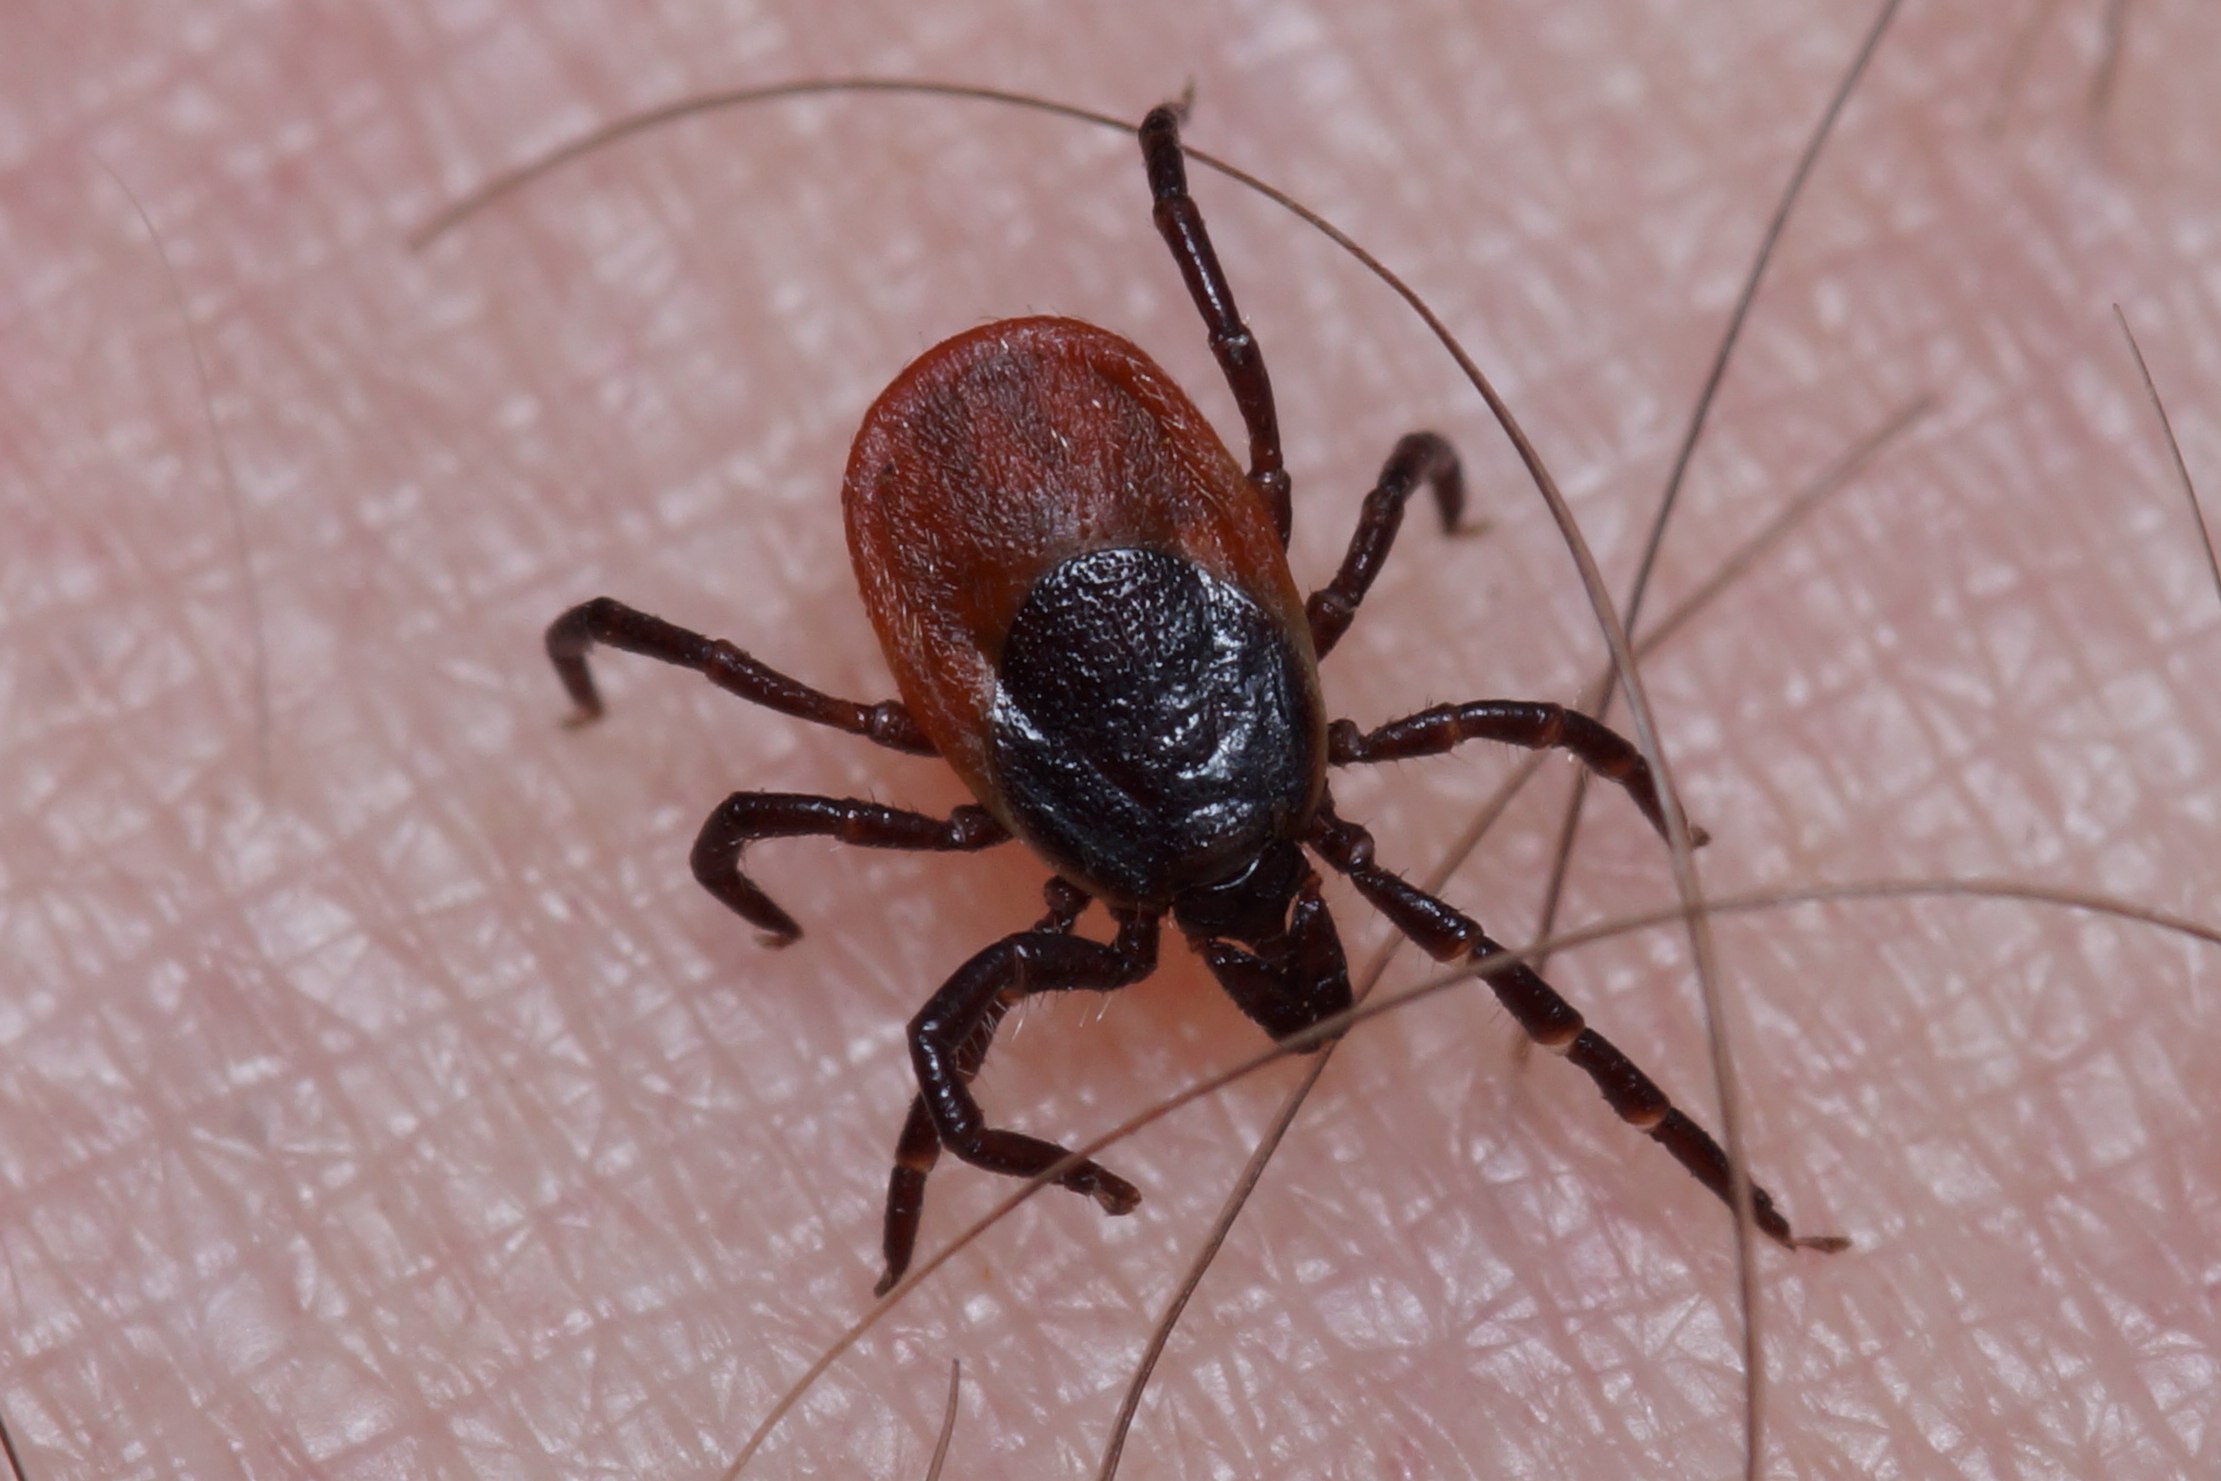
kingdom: Animalia
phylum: Arthropoda
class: Arachnida
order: Ixodida
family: Ixodidae
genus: Ixodes
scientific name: Ixodes ricinus
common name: Skovflåt
